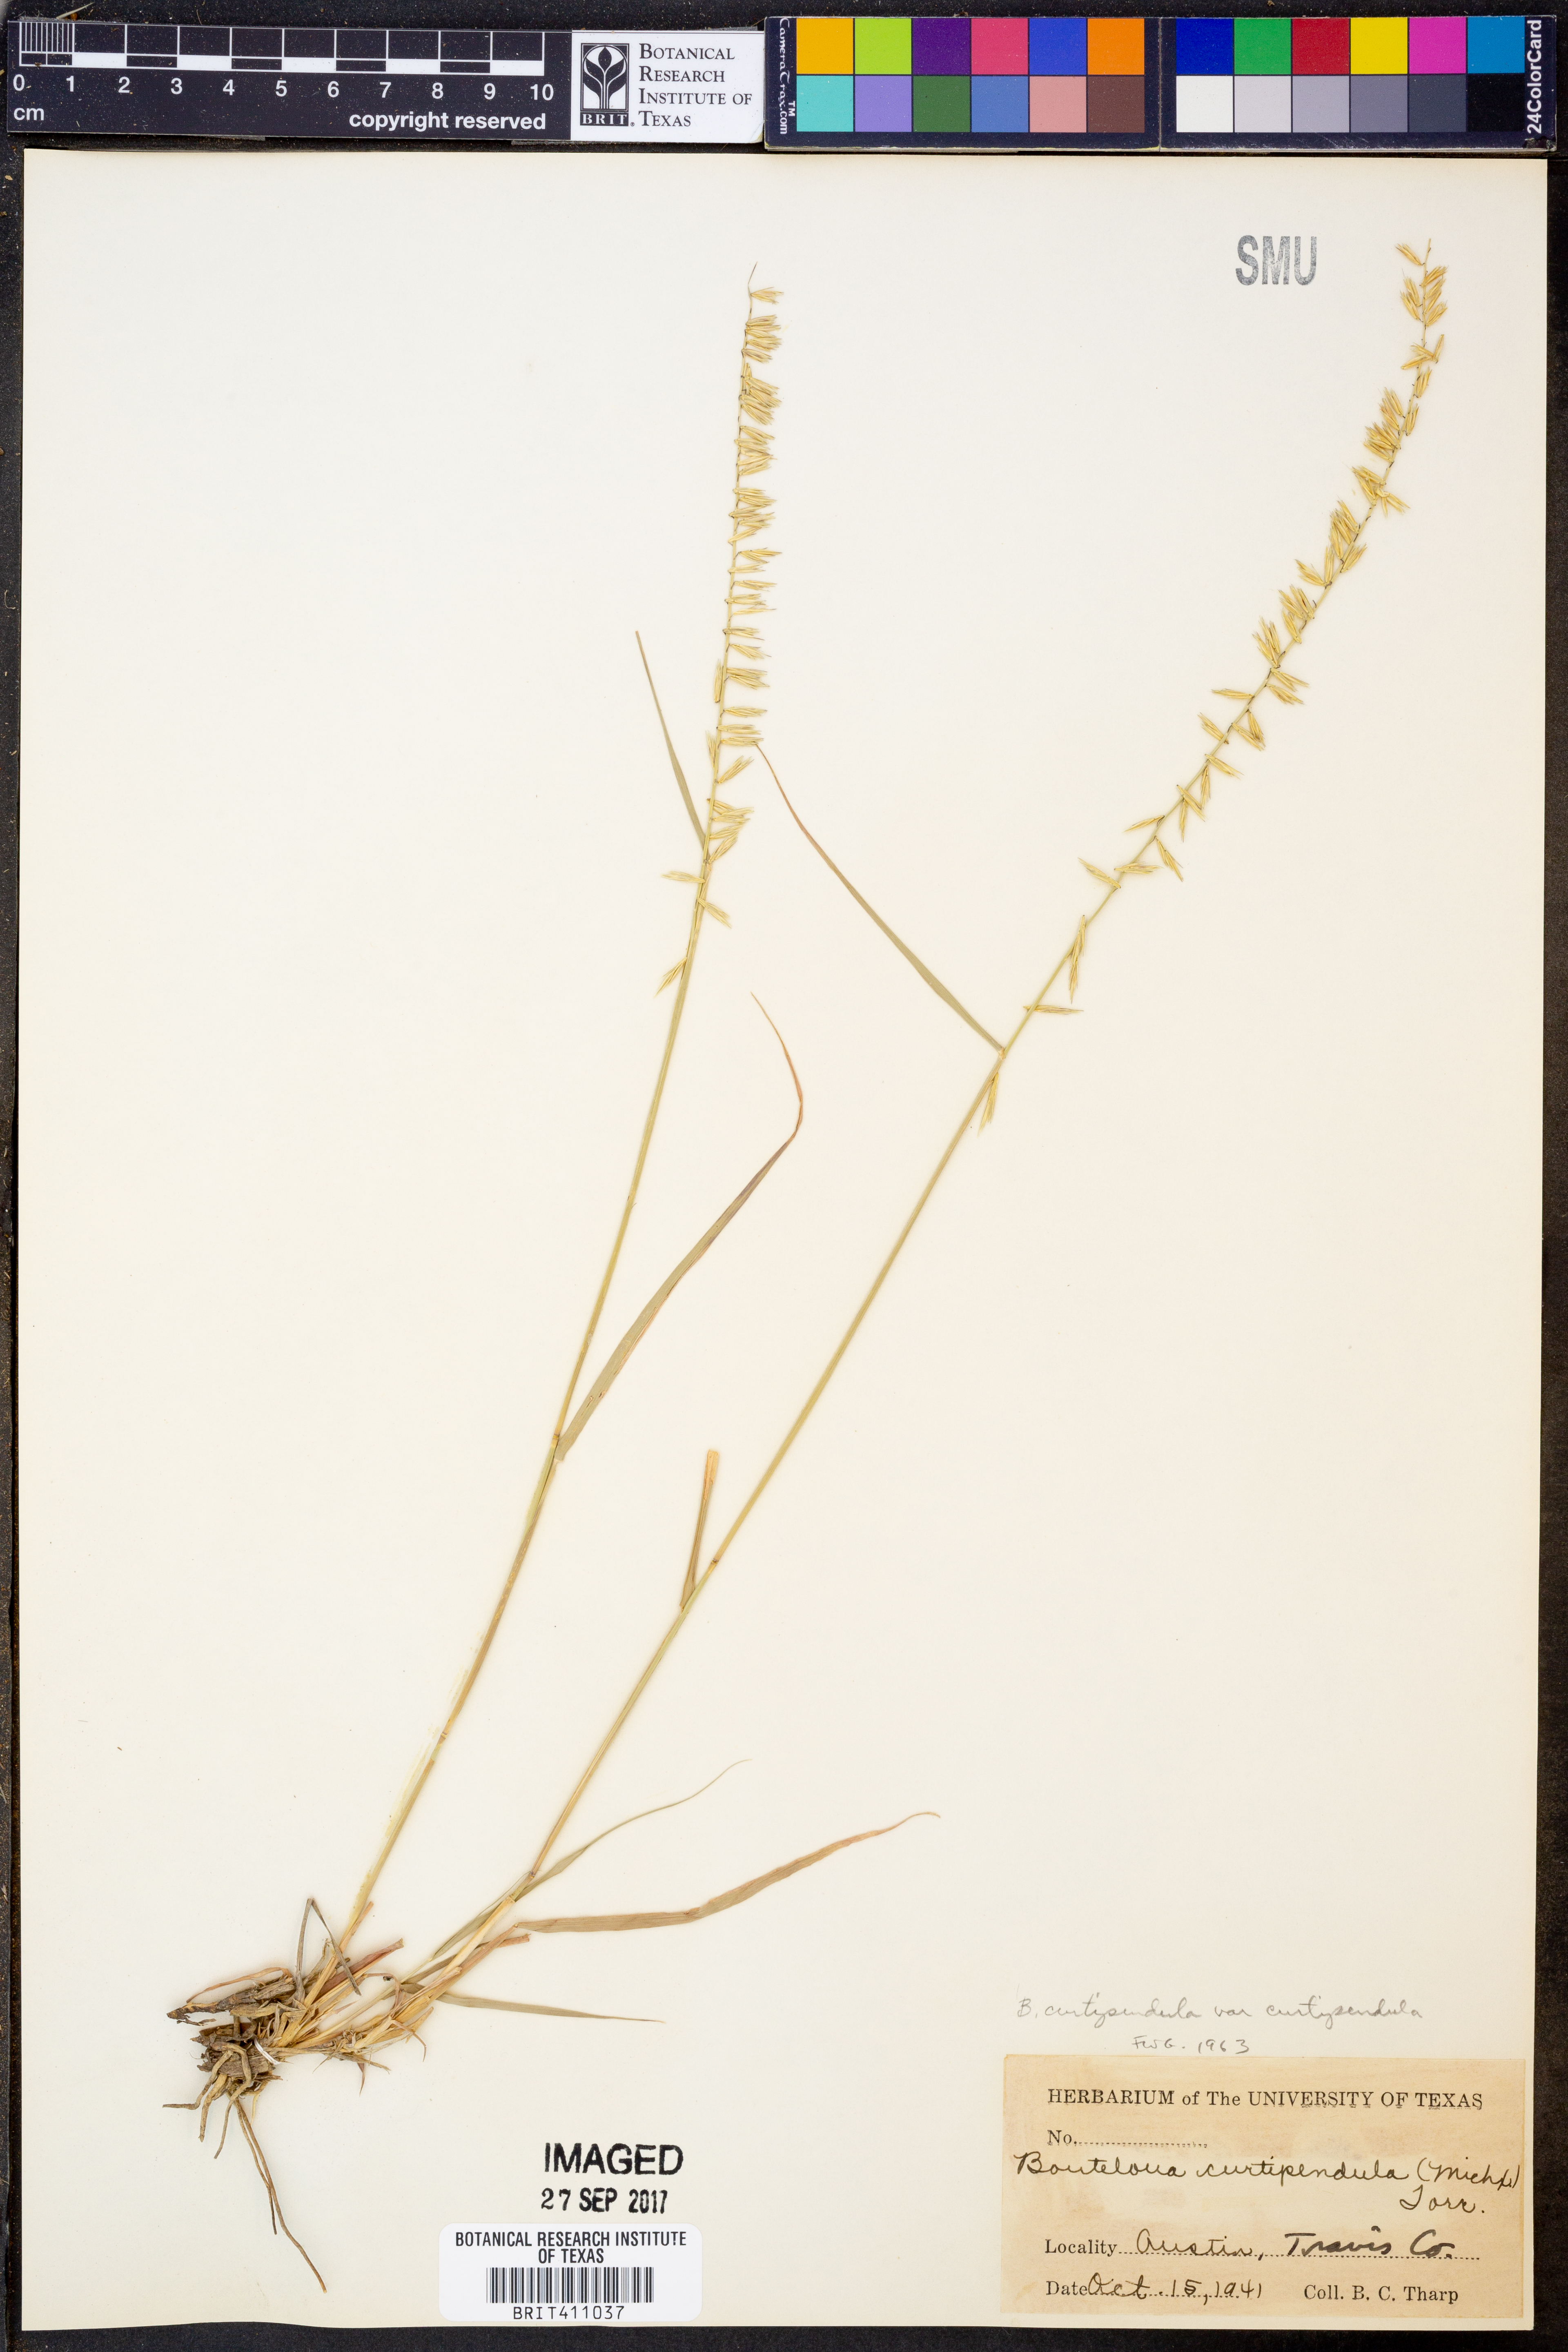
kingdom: Plantae
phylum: Tracheophyta
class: Liliopsida
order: Poales
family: Poaceae
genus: Bouteloua
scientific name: Bouteloua curtipendula
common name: Side-oats grama
